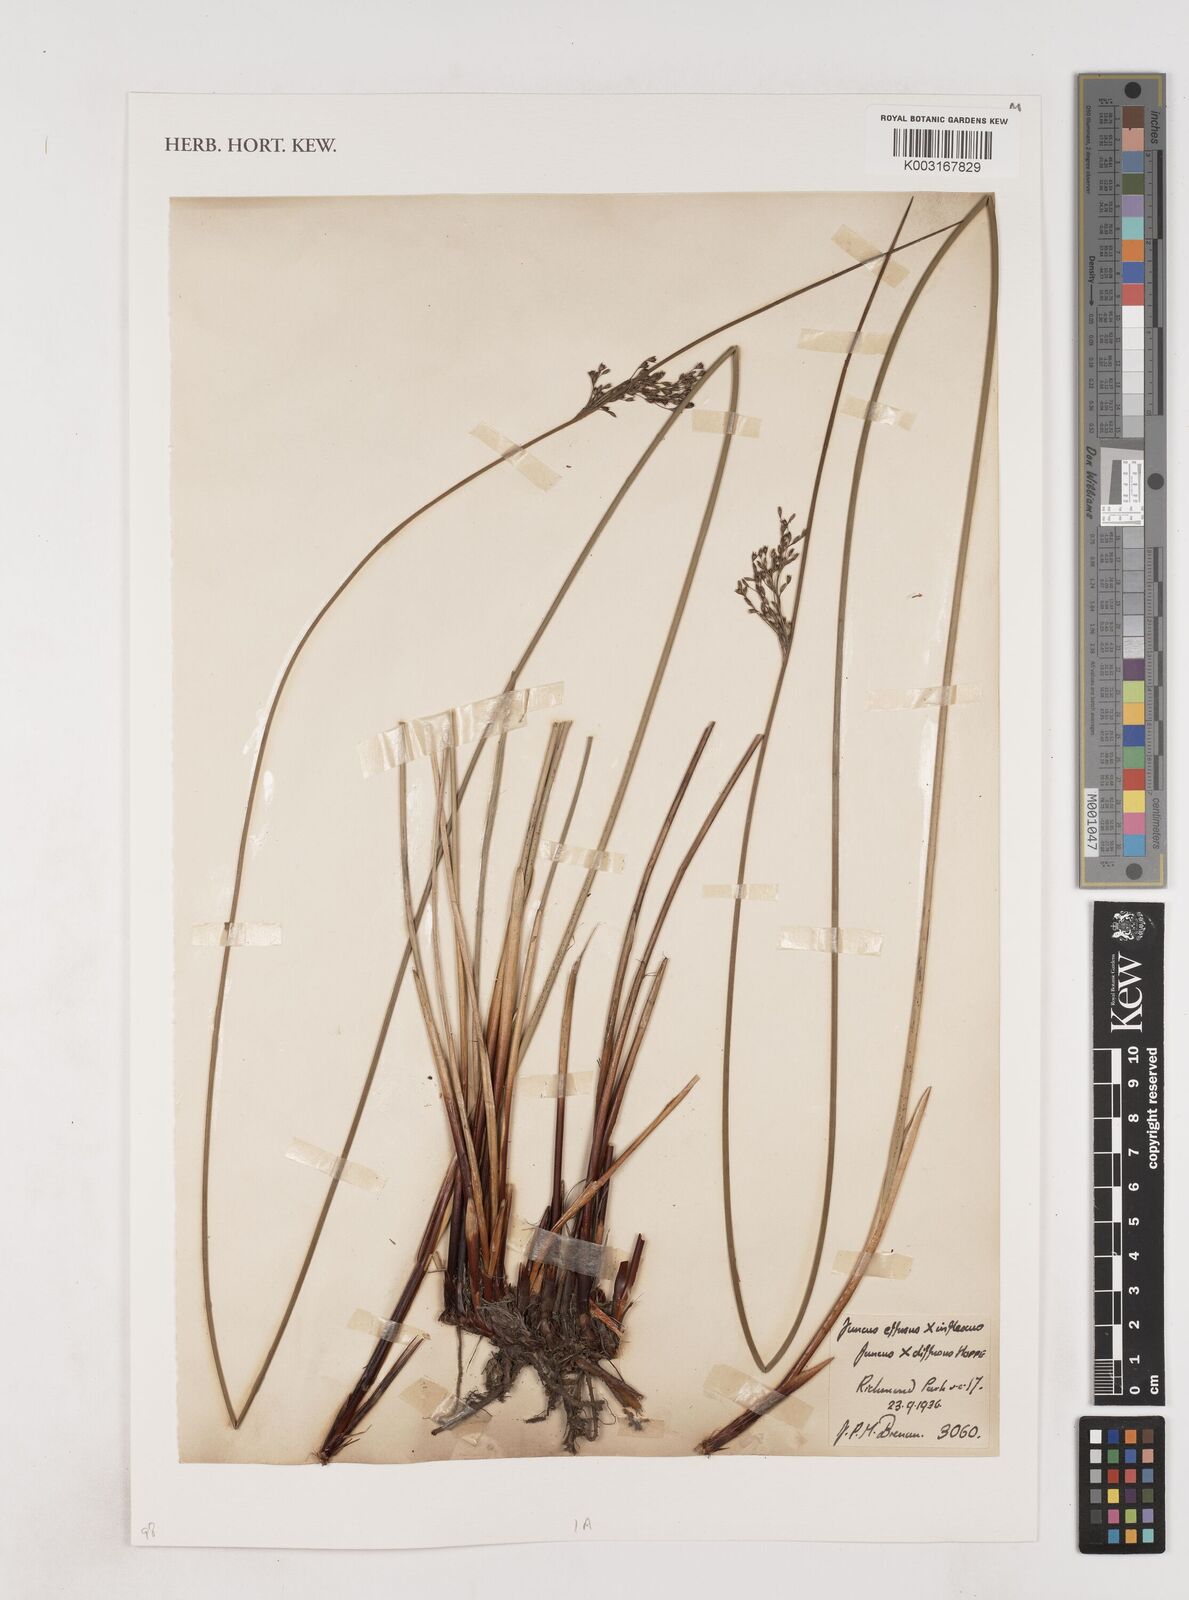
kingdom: Plantae
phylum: Tracheophyta
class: Liliopsida
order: Poales
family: Juncaceae
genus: Juncus
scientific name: Juncus effusus
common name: Soft rush
